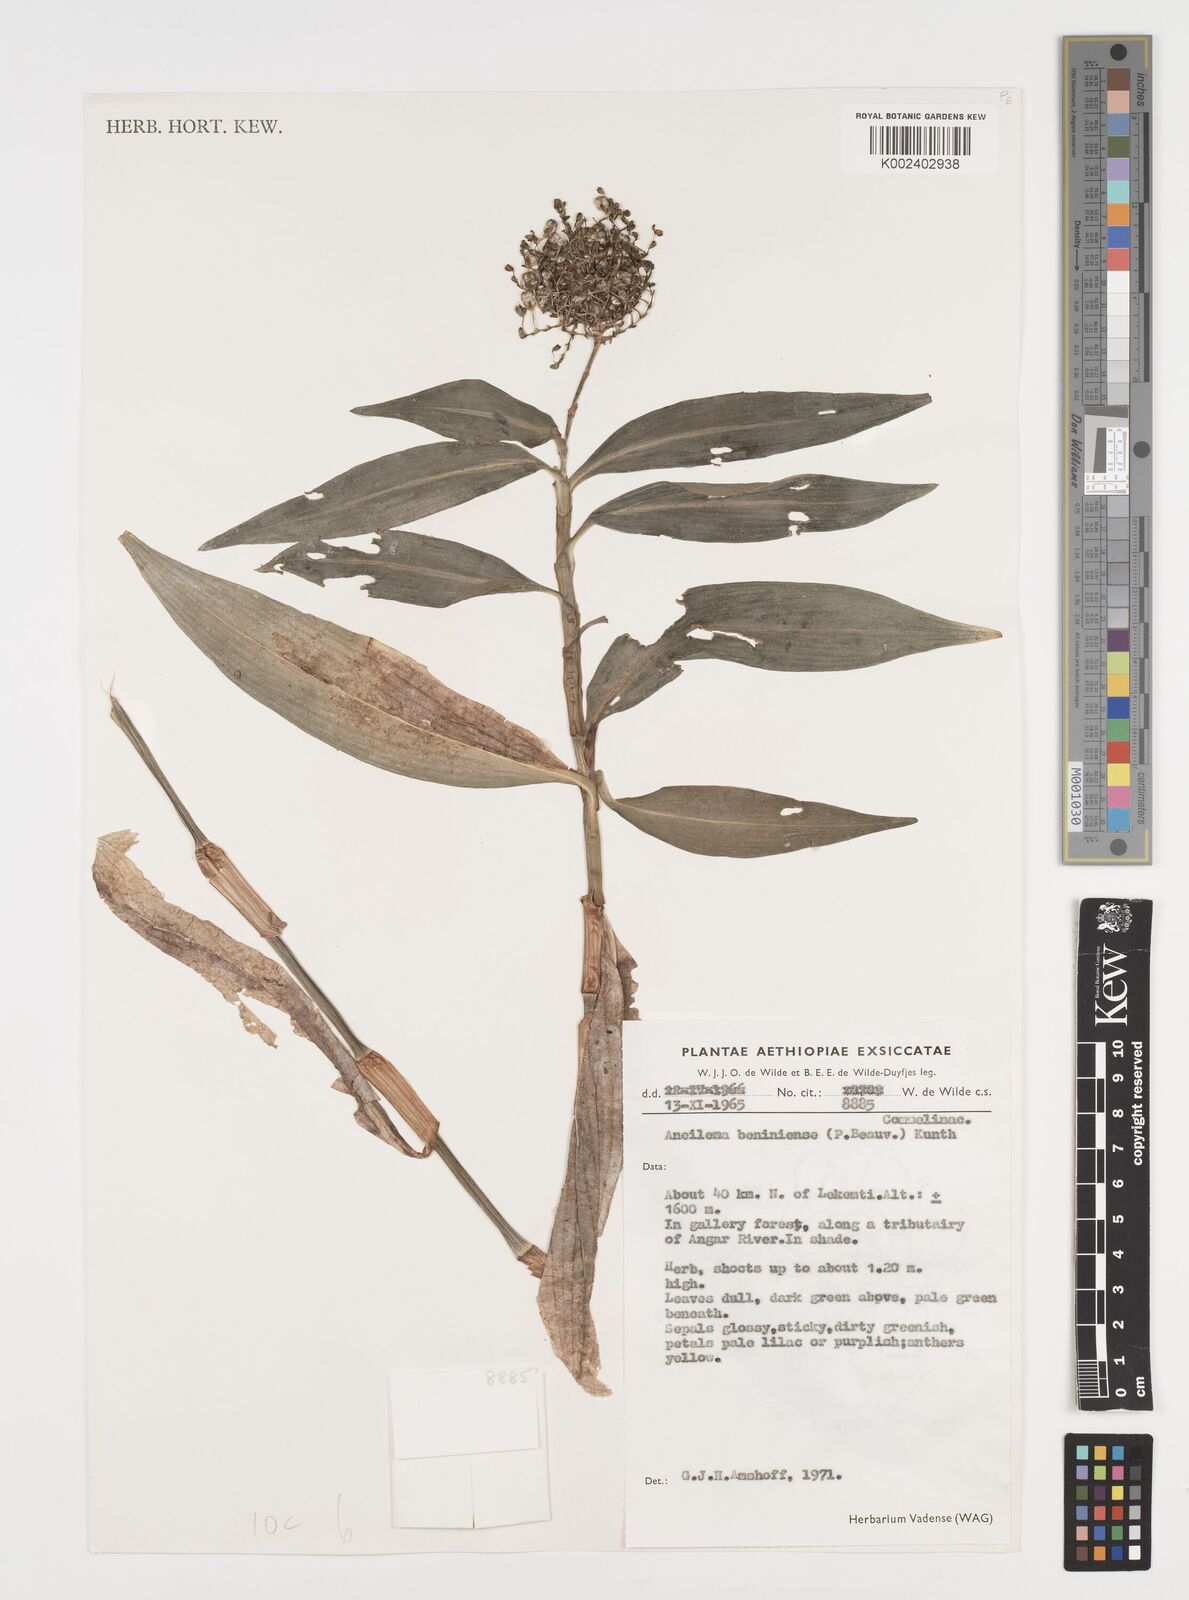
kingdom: Plantae
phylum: Tracheophyta
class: Liliopsida
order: Commelinales
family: Commelinaceae
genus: Aneilema
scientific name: Aneilema beniniense
